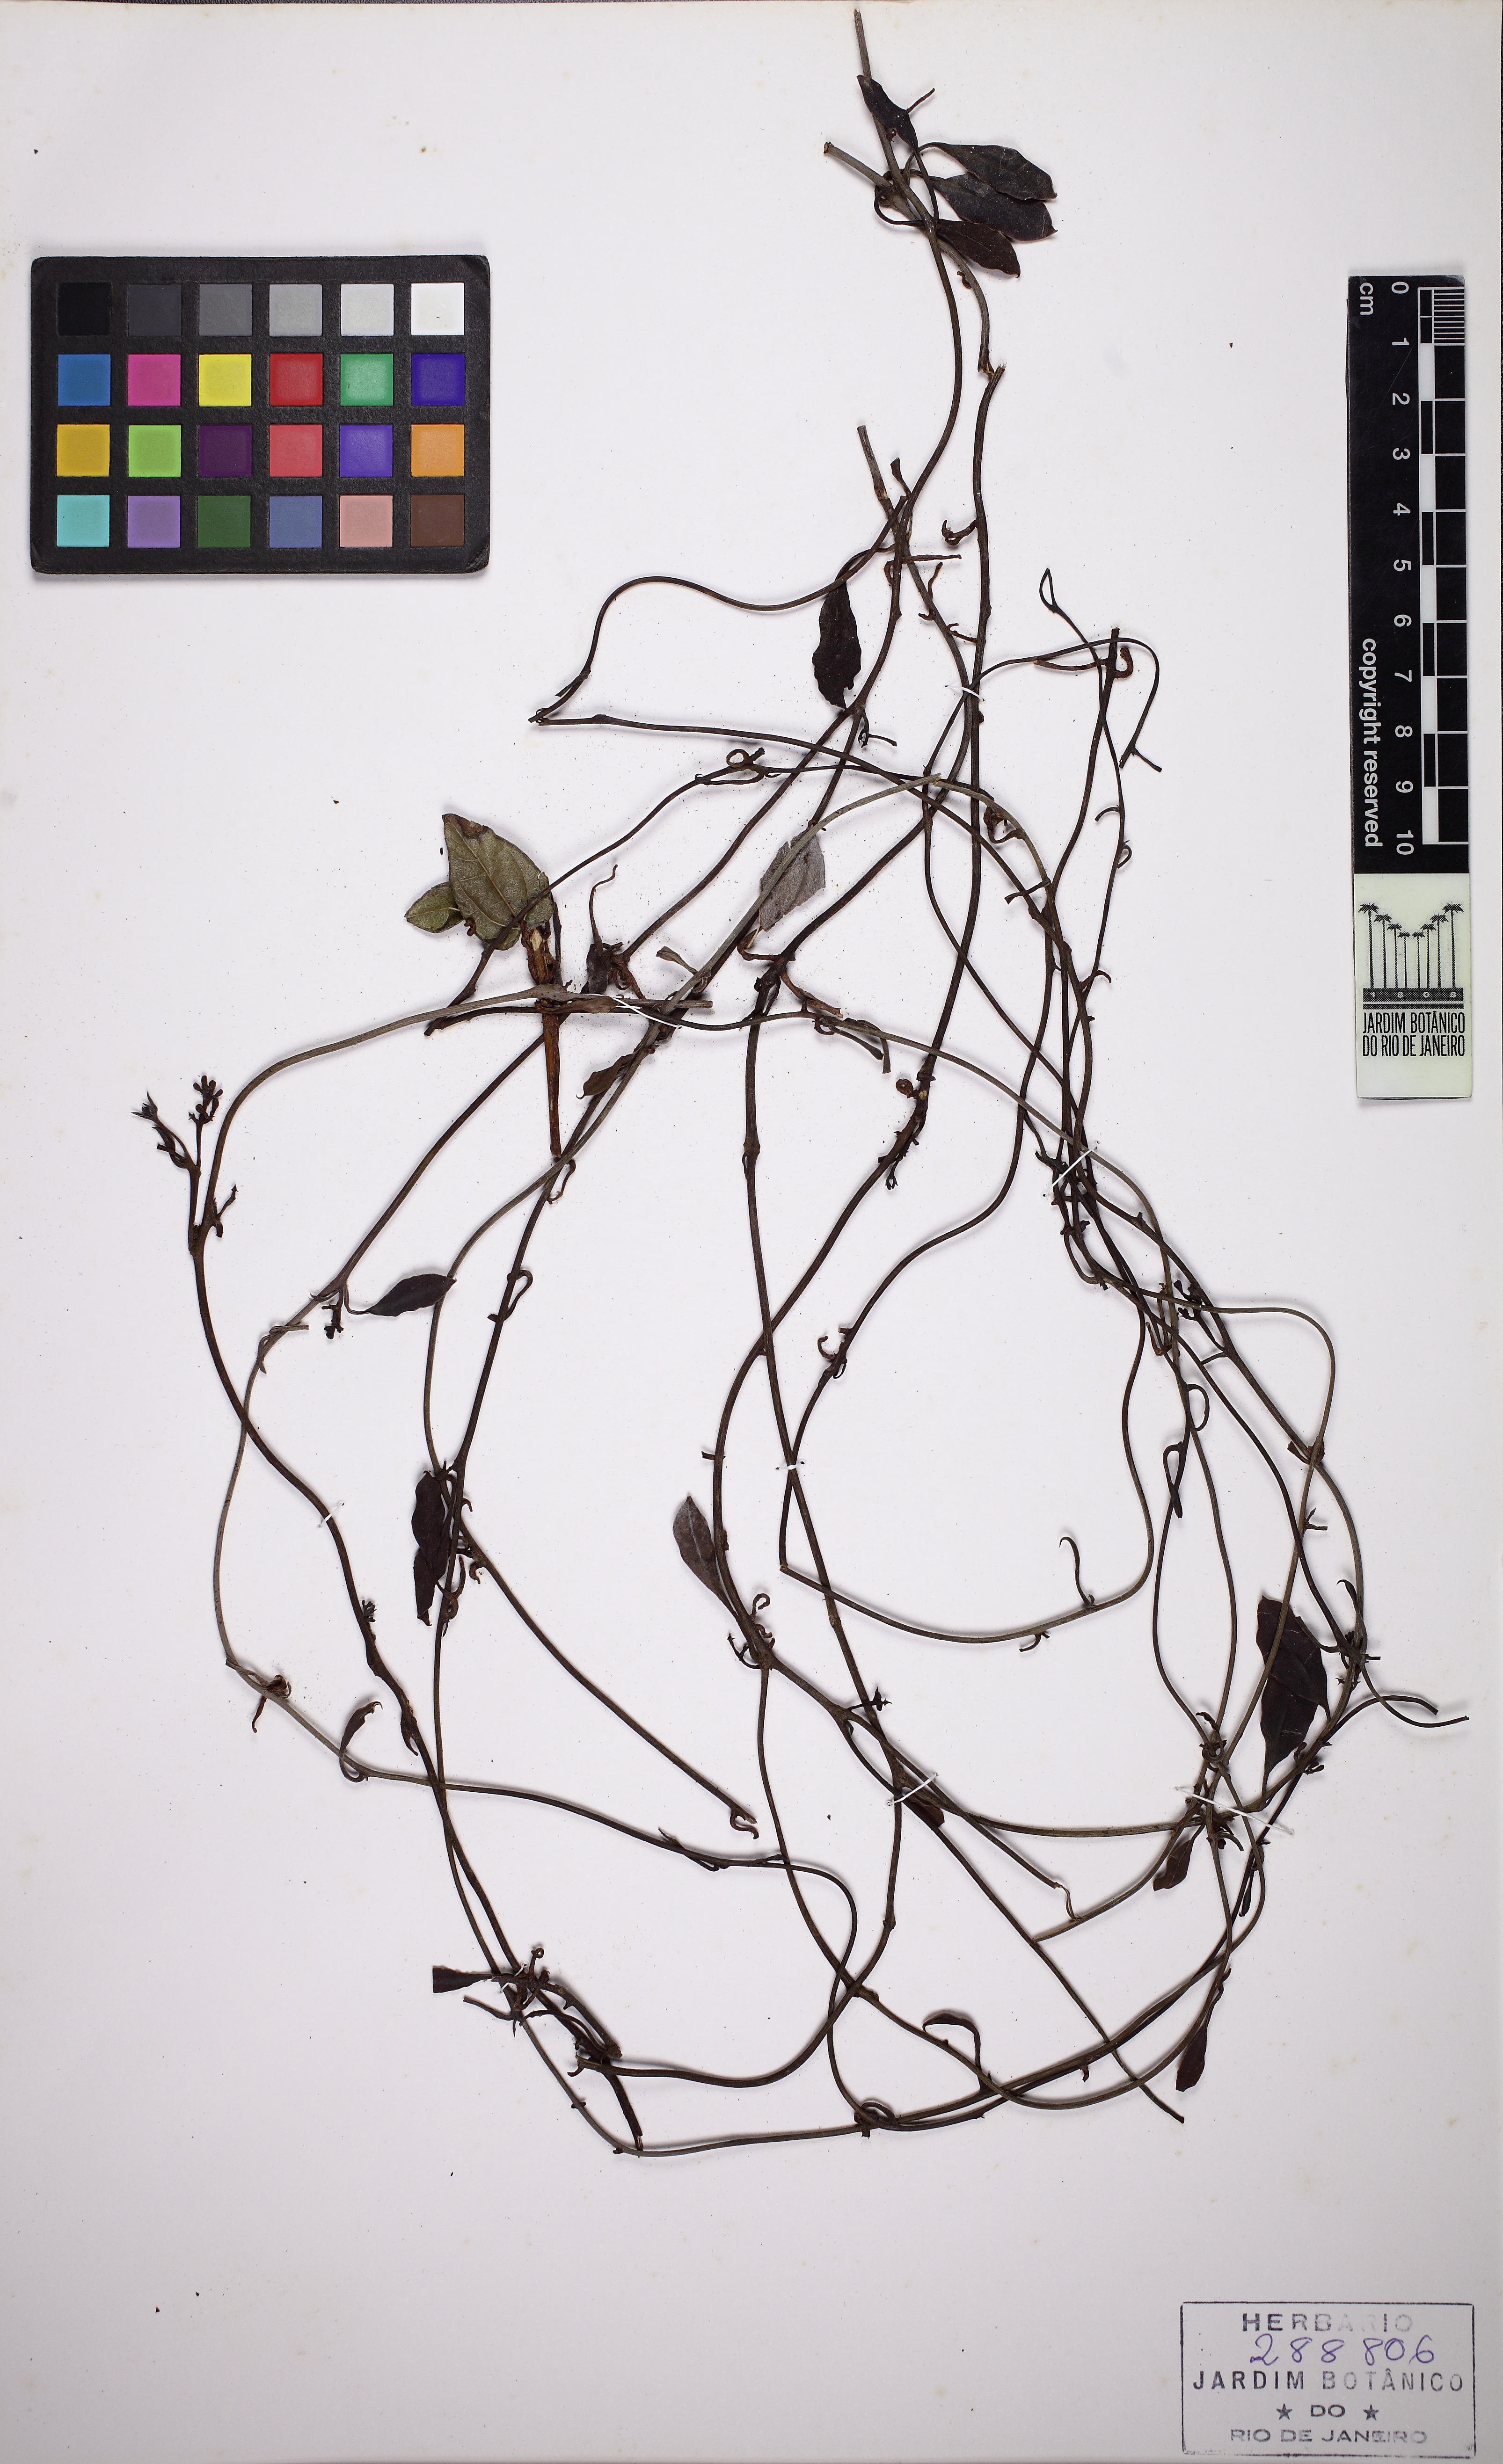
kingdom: Plantae
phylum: Tracheophyta
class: Magnoliopsida
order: Santalales
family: Loranthaceae
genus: Struthanthus
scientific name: Struthanthus flexicaulis
